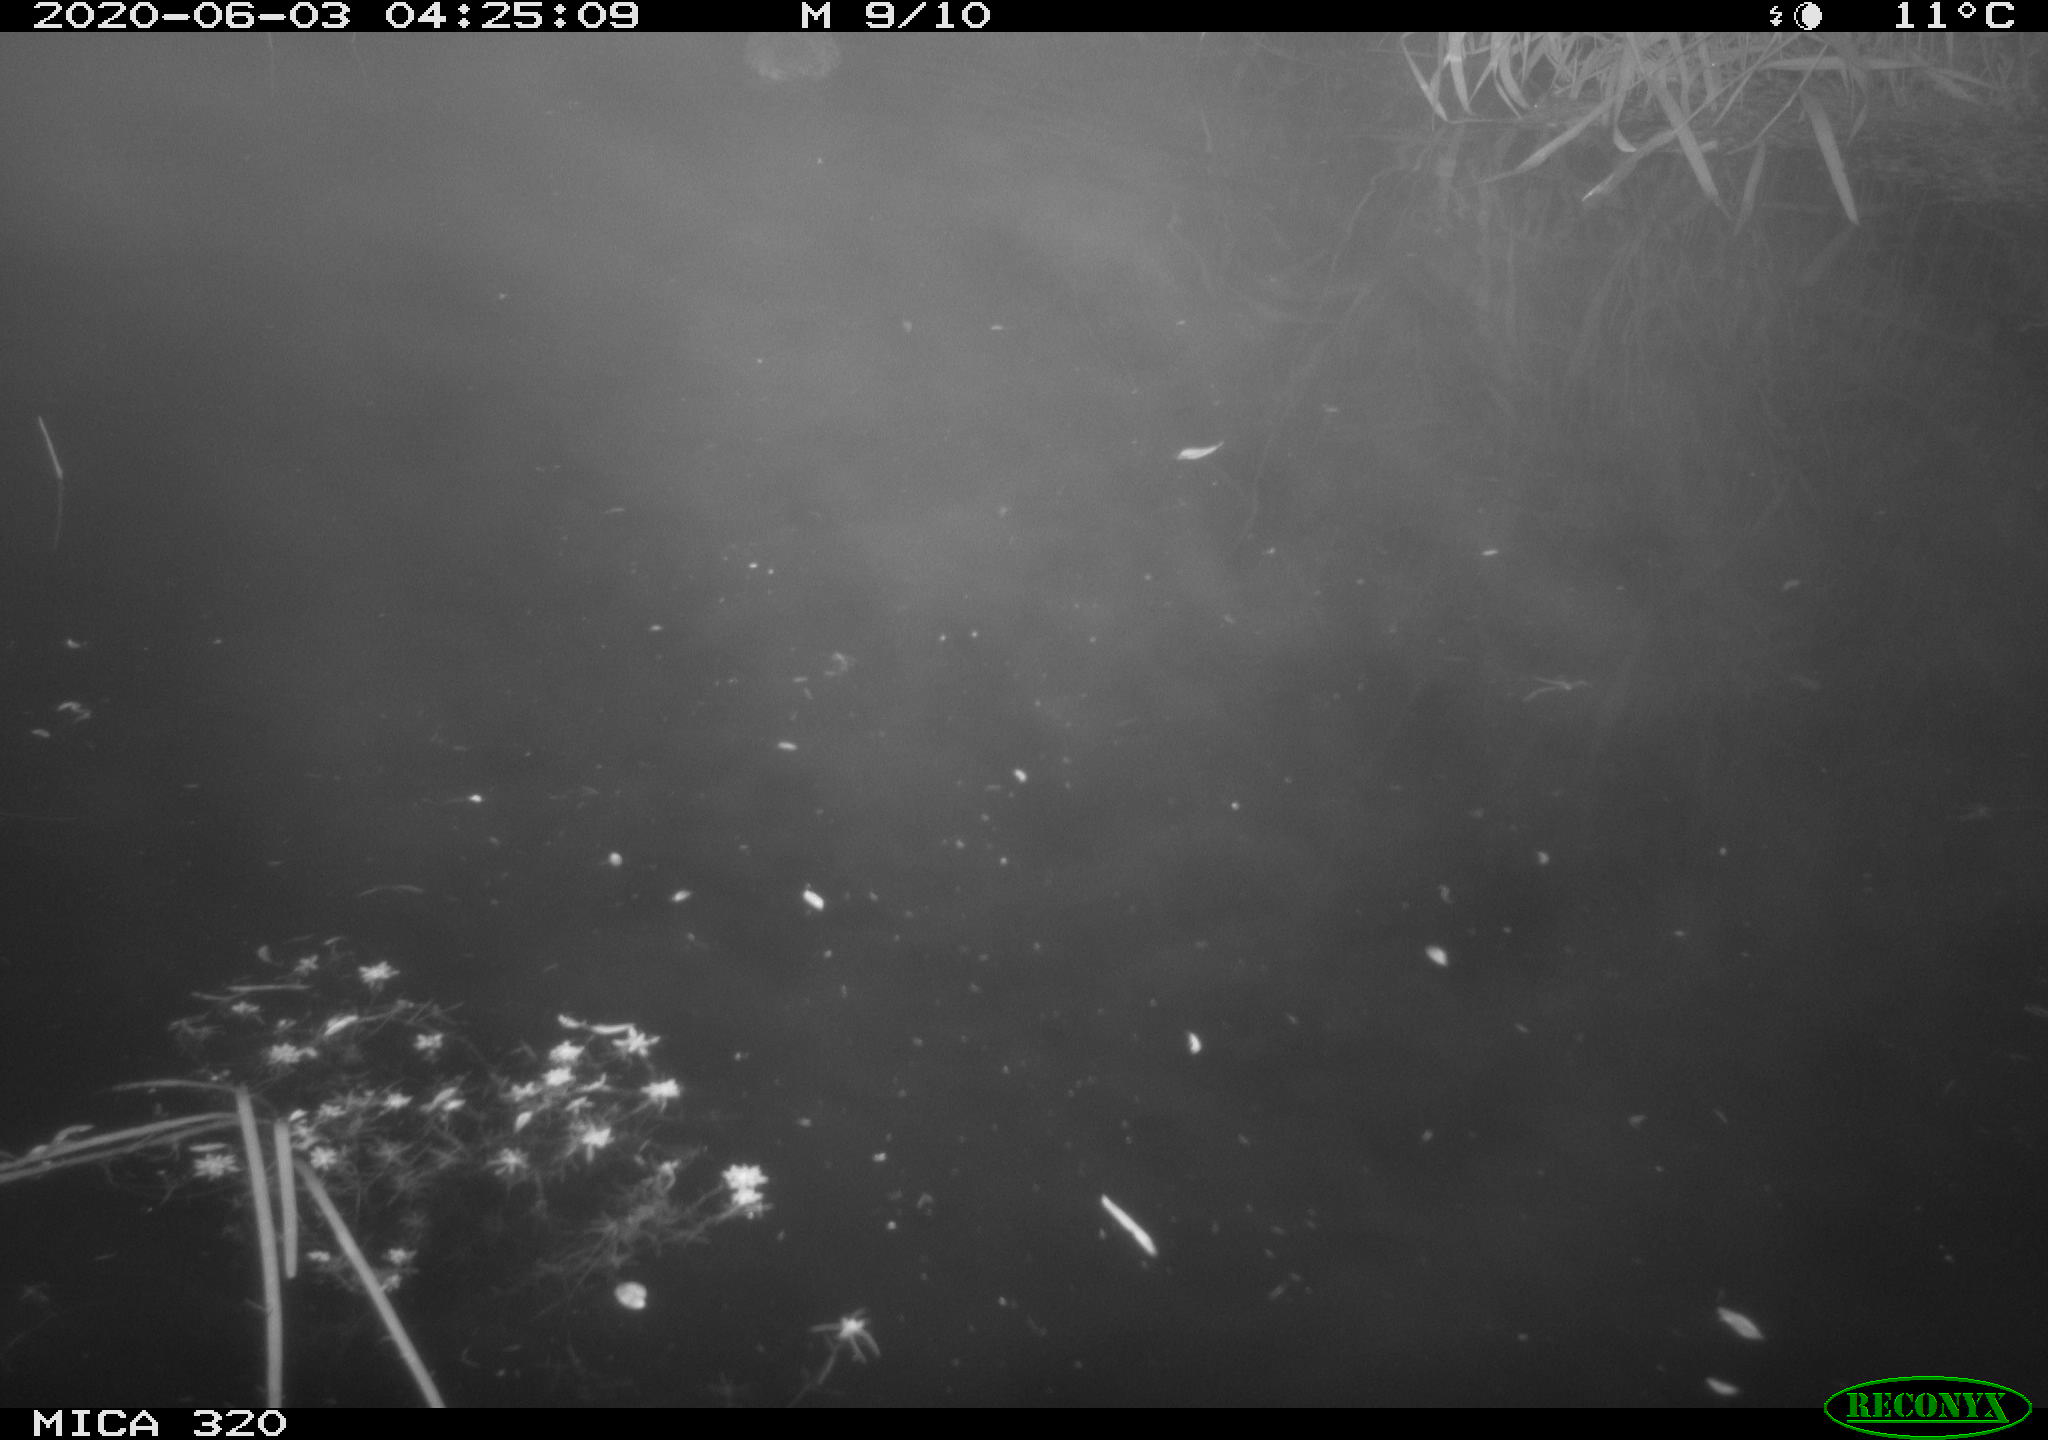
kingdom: Animalia
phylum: Chordata
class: Aves
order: Anseriformes
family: Anatidae
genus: Anas
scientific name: Anas platyrhynchos
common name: Mallard
